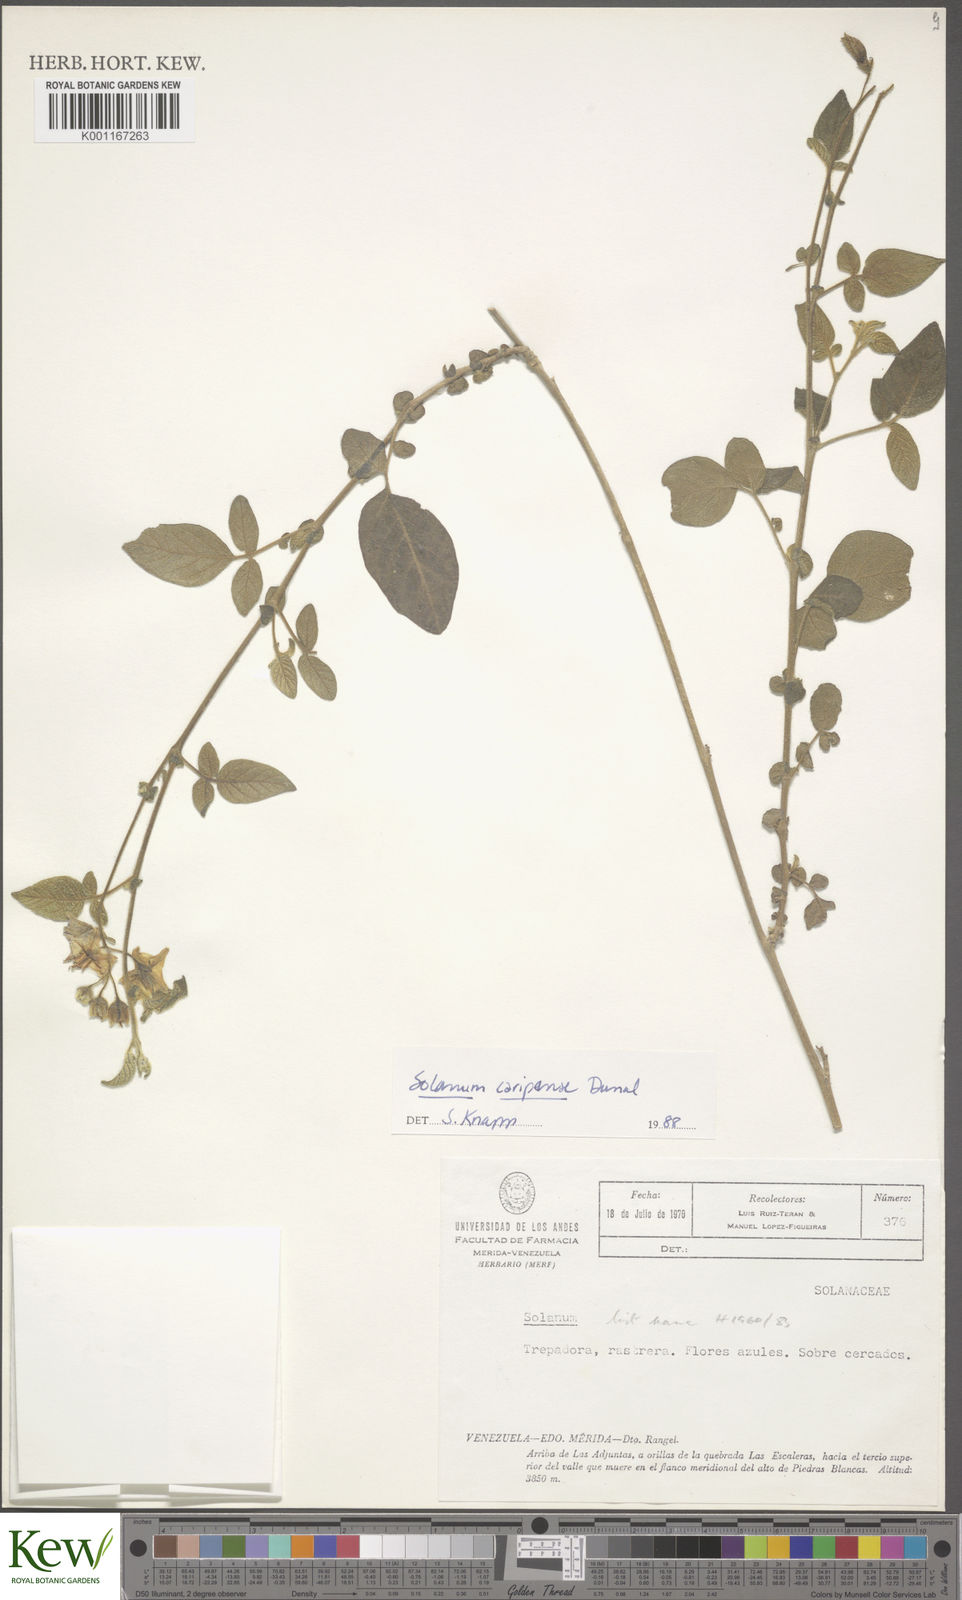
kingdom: Plantae
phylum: Tracheophyta
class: Magnoliopsida
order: Solanales
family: Solanaceae
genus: Solanum
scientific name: Solanum caripense
